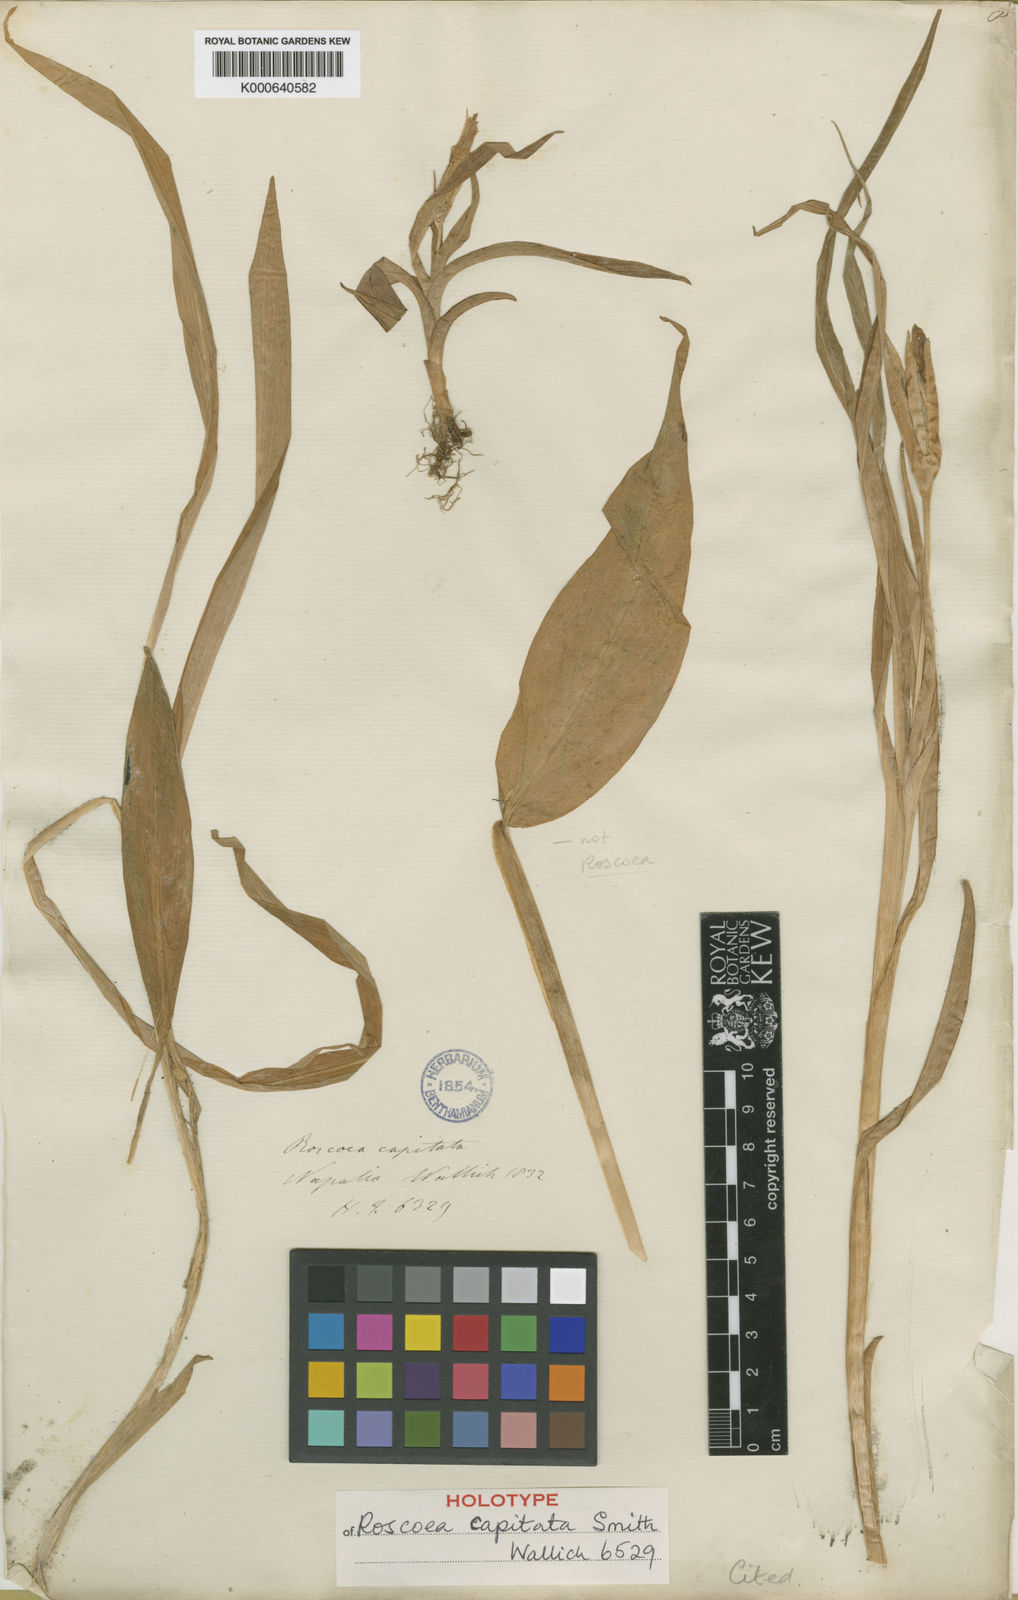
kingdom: Plantae
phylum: Tracheophyta
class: Liliopsida
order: Zingiberales
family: Zingiberaceae
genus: Roscoea
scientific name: Roscoea capitata
